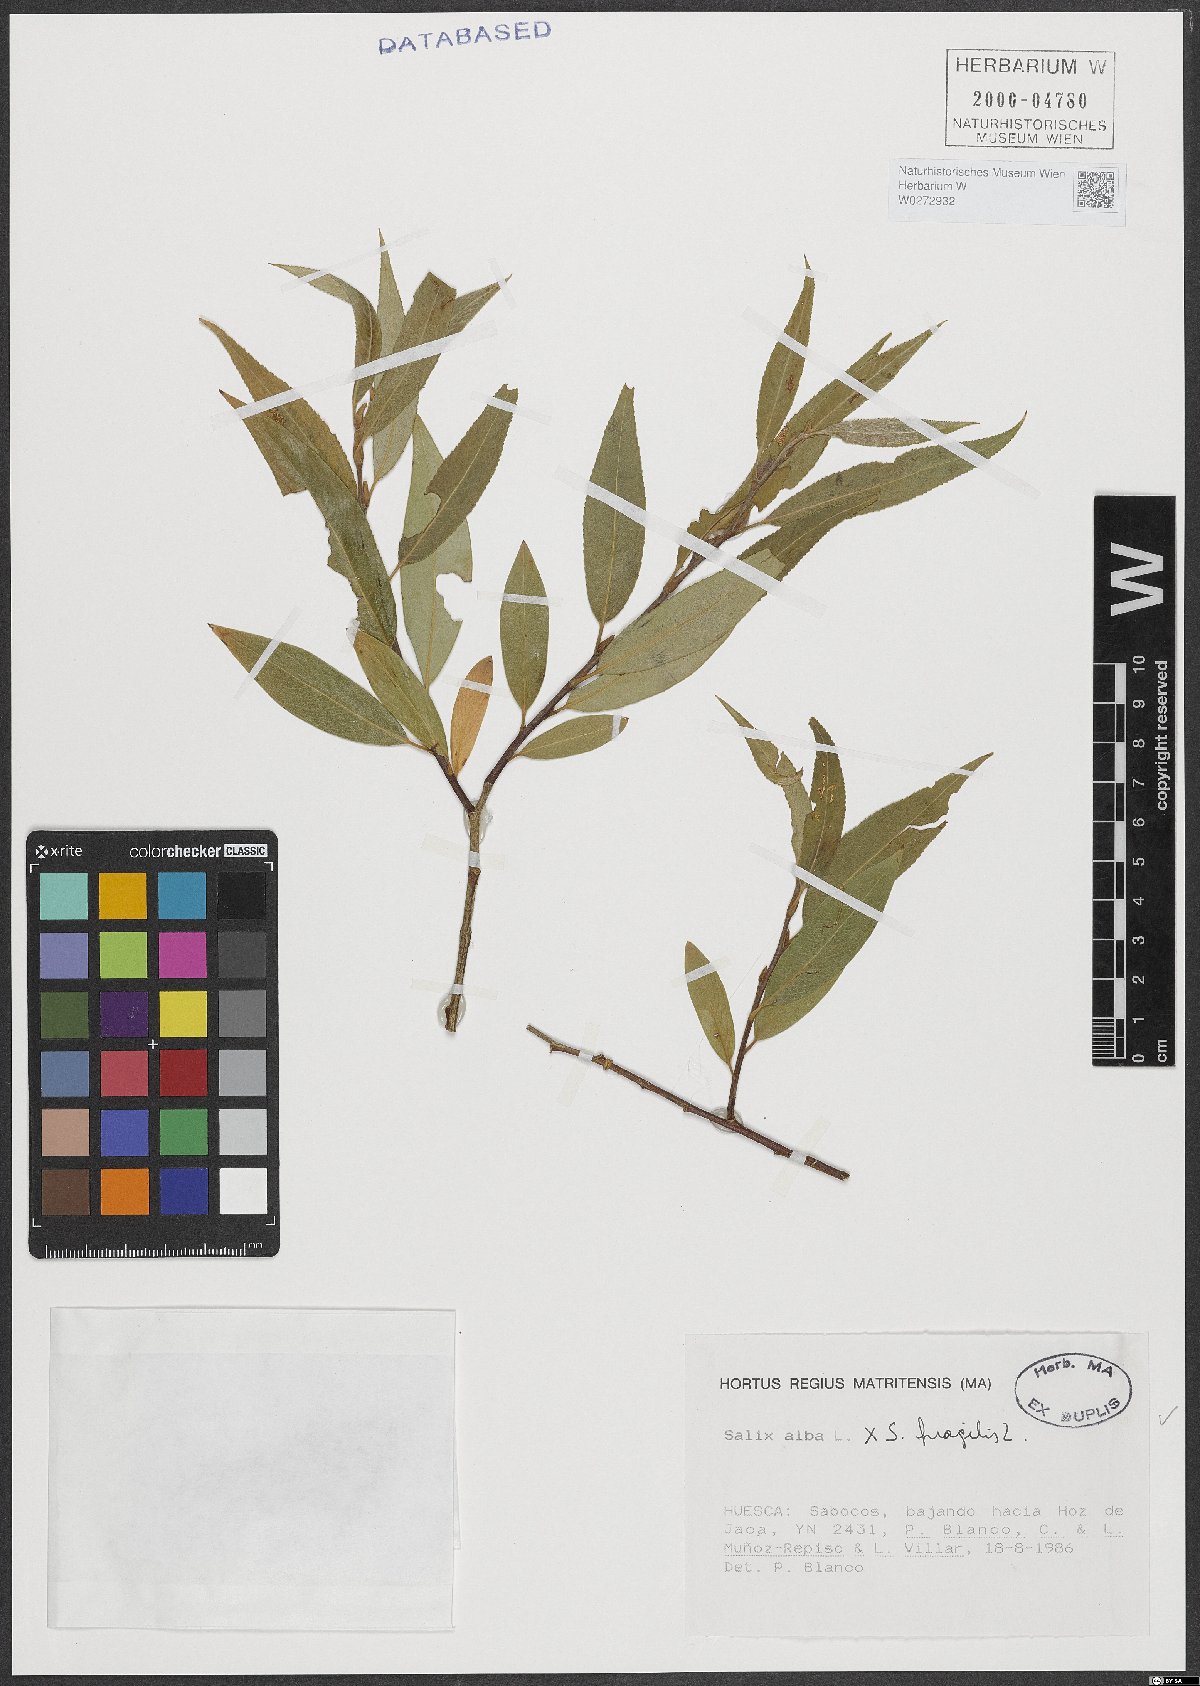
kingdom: Plantae
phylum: Tracheophyta
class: Magnoliopsida
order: Malpighiales
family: Salicaceae
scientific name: Salicaceae
